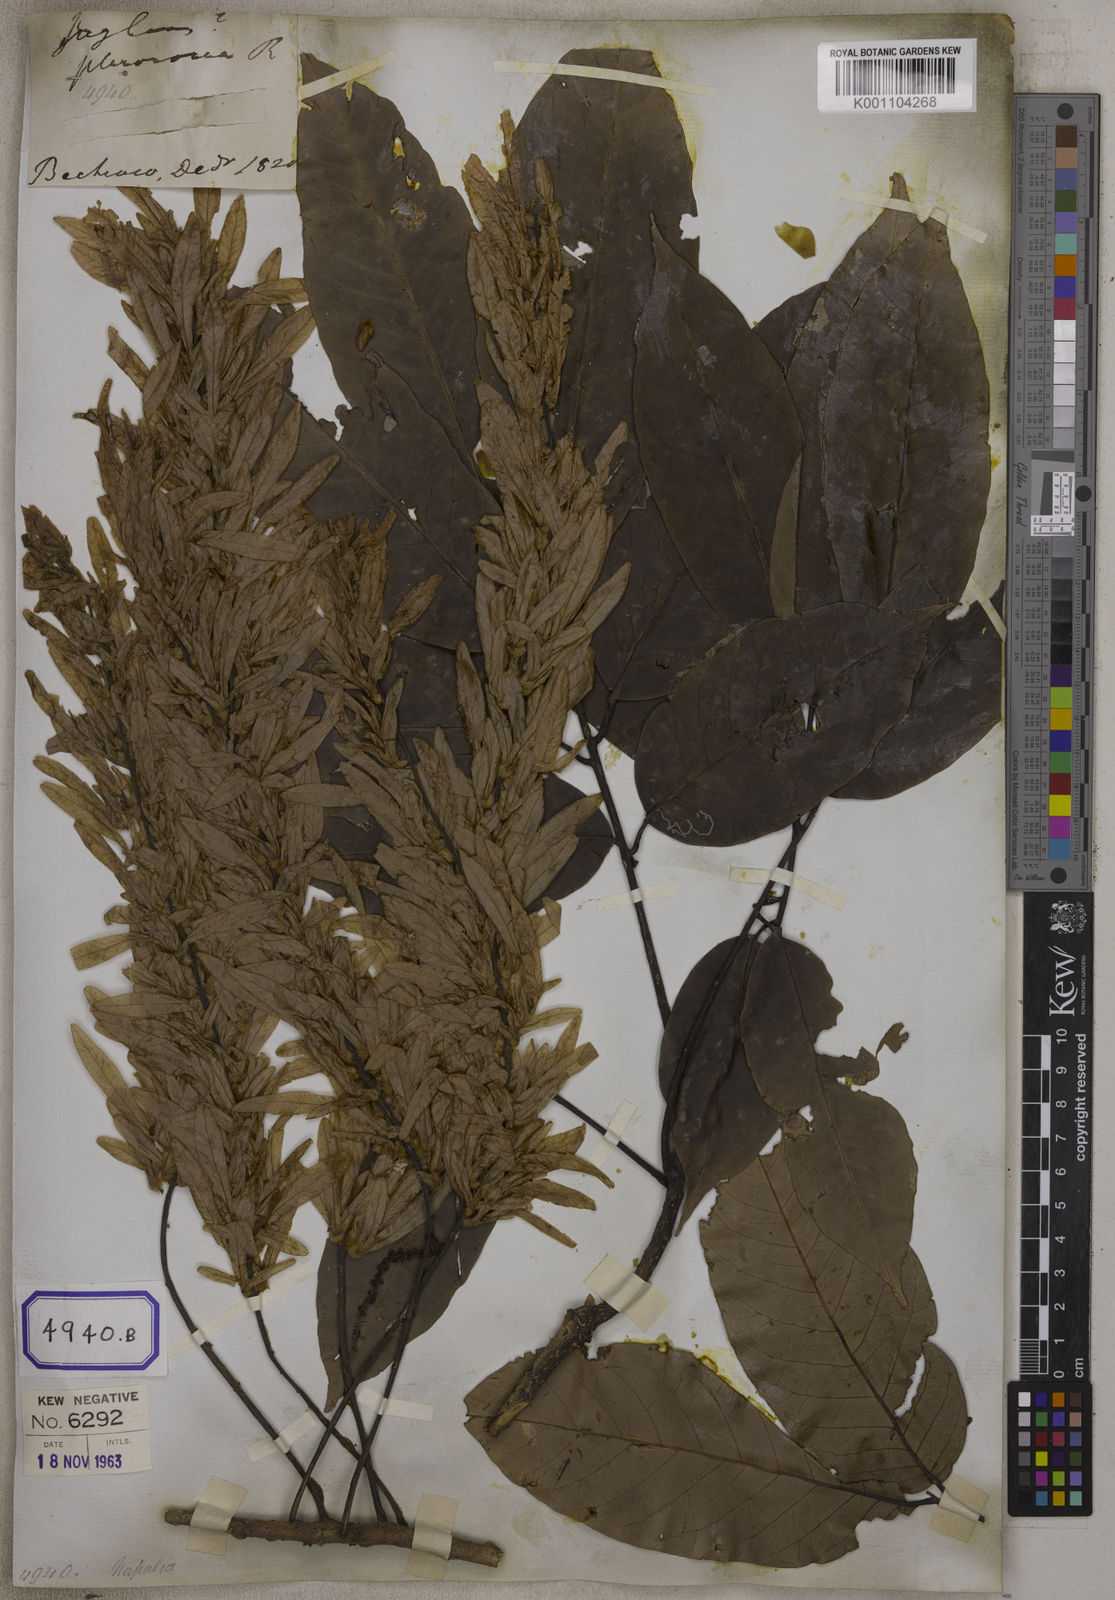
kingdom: Plantae
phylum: Tracheophyta
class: Magnoliopsida
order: Fagales
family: Juglandaceae
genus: Engelhardia
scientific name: Engelhardia spicata
